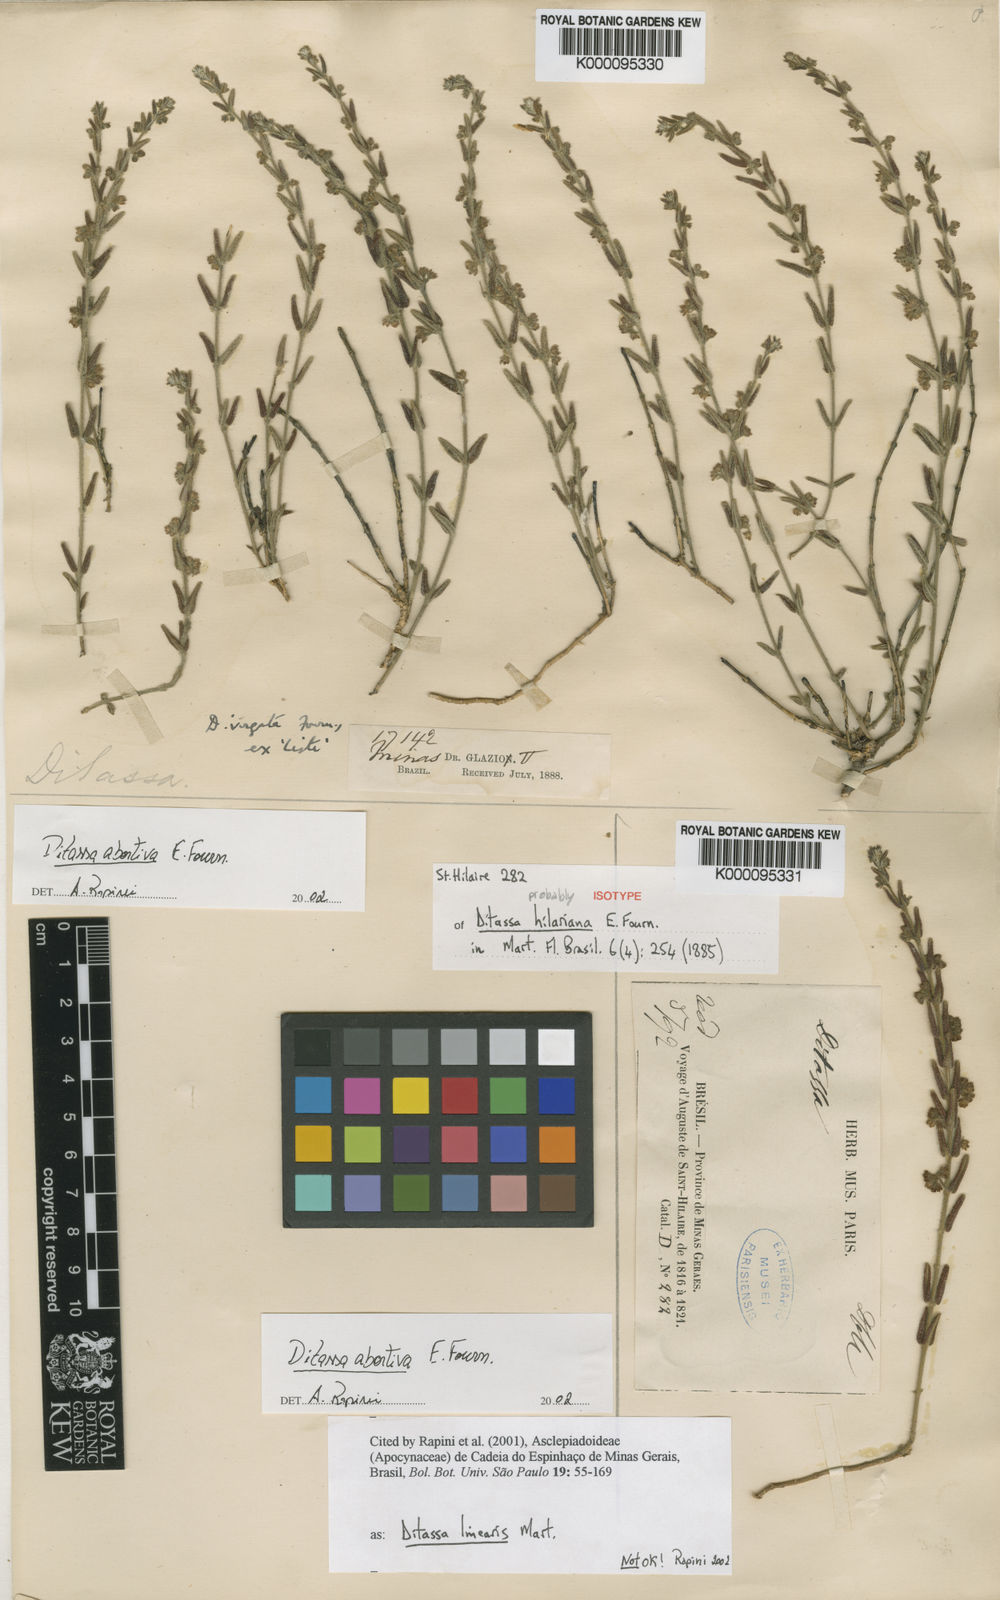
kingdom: Plantae
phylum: Tracheophyta
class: Magnoliopsida
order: Gentianales
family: Apocynaceae
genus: Minaria
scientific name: Minaria abortiva
